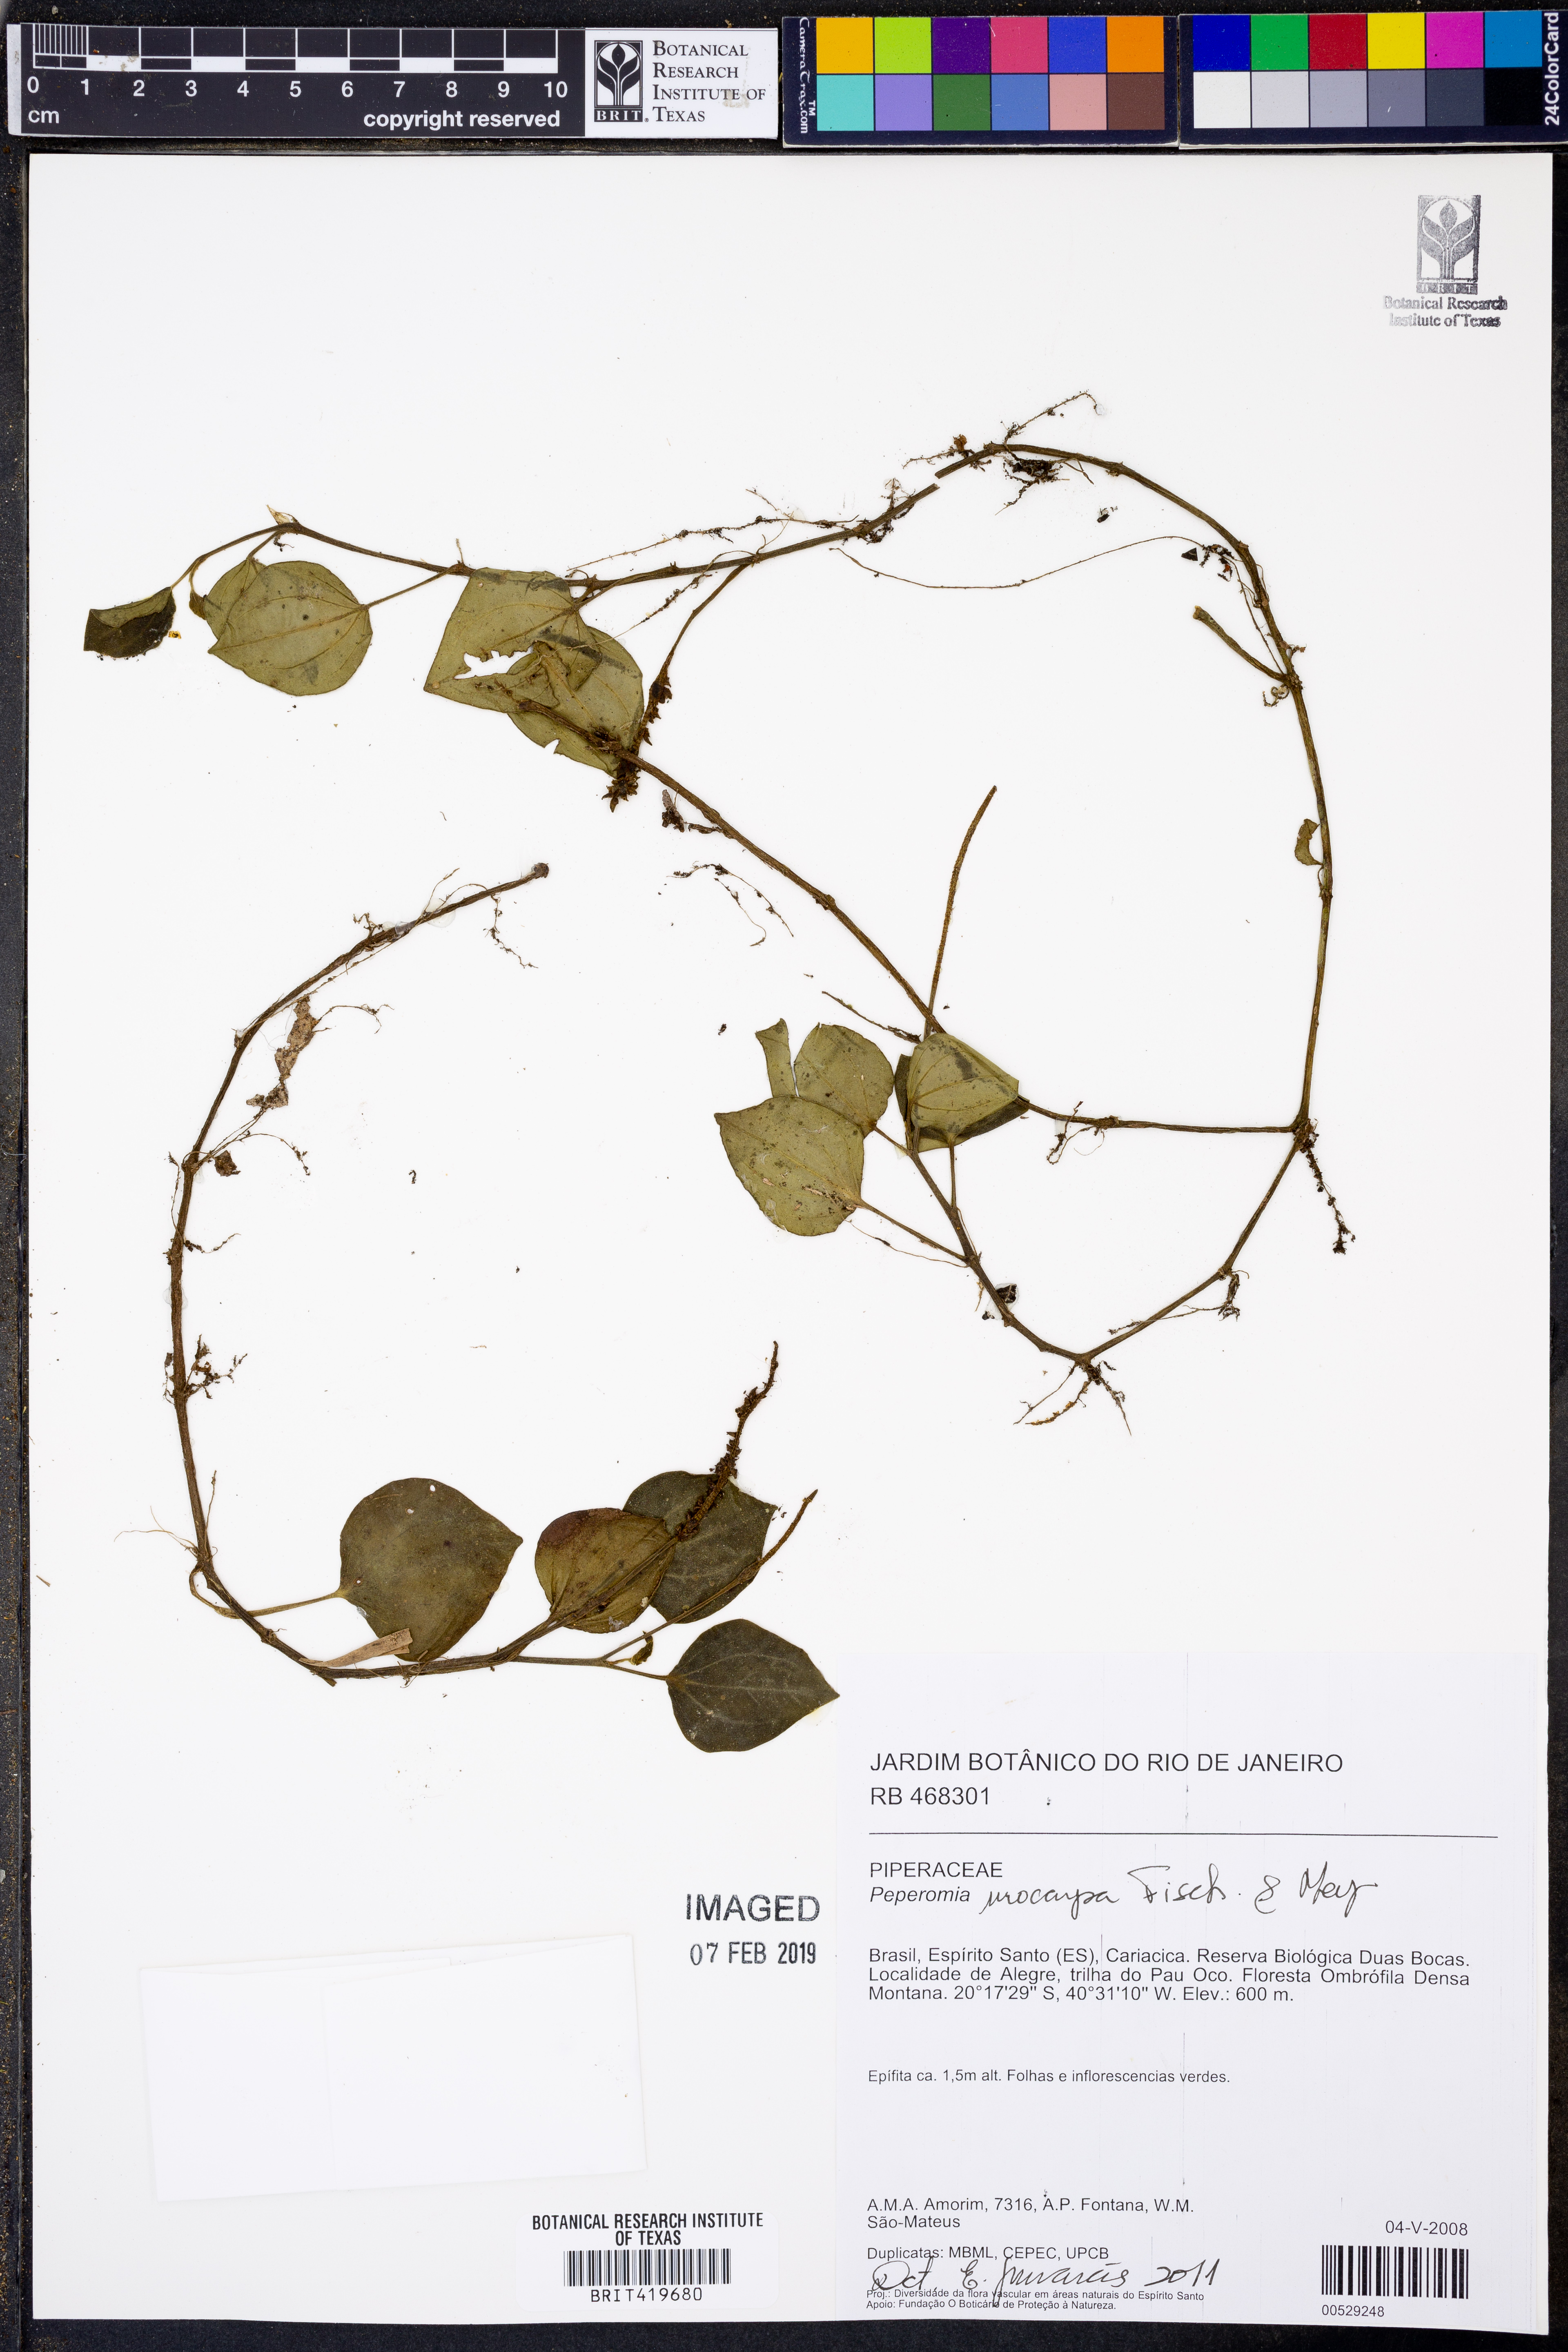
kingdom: Plantae
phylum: Tracheophyta
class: Magnoliopsida
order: Piperales
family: Piperaceae
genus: Peperomia
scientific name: Peperomia urocarpa
